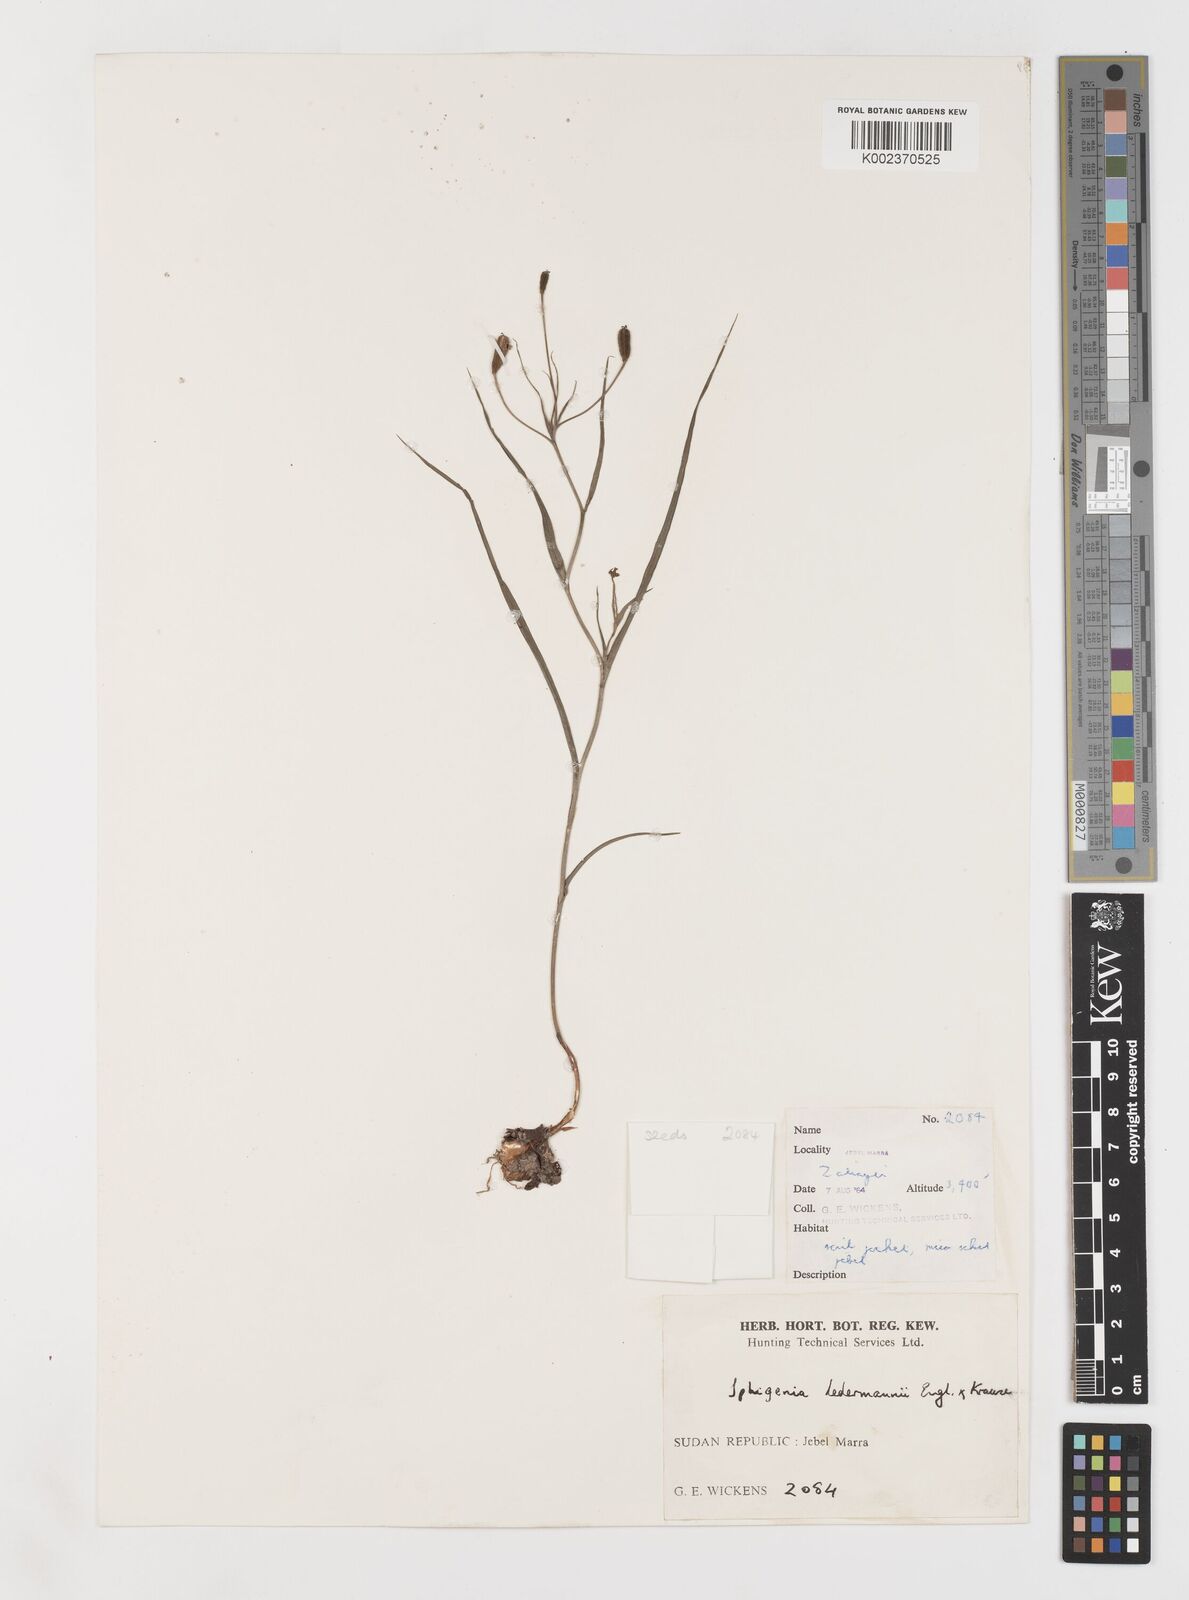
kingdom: Plantae
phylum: Tracheophyta
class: Liliopsida
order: Liliales
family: Colchicaceae
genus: Iphigenia
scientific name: Iphigenia pauciflora
